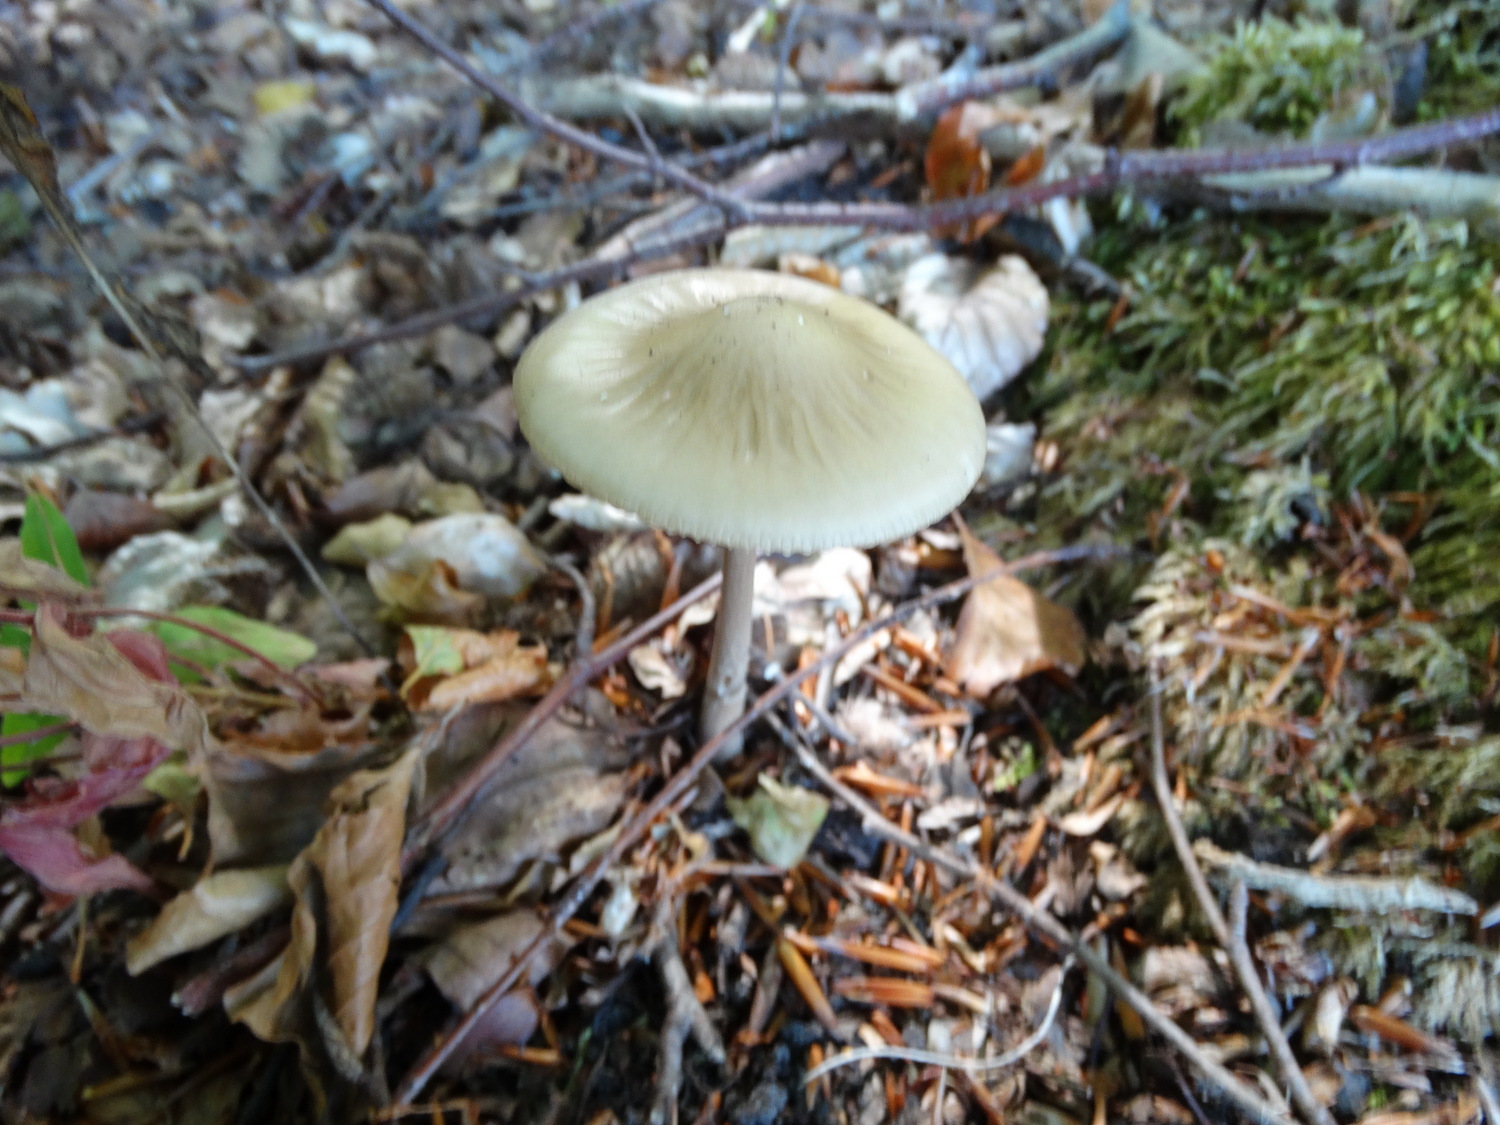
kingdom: Fungi
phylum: Basidiomycota
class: Agaricomycetes
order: Agaricales
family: Physalacriaceae
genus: Hymenopellis
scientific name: Hymenopellis radicata
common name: almindelig pælerodshat
